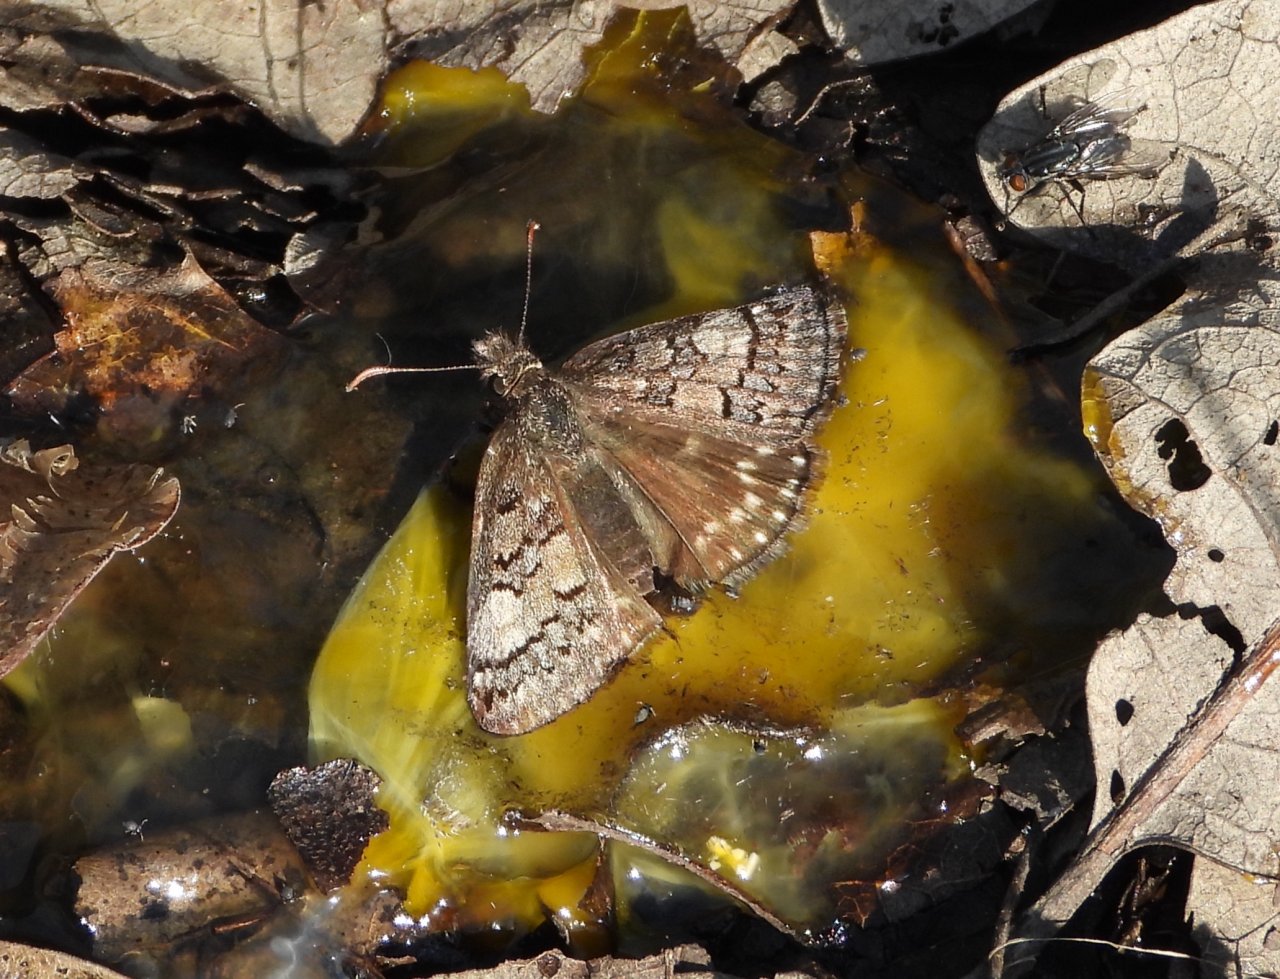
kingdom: Animalia
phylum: Arthropoda
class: Insecta
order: Lepidoptera
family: Hesperiidae
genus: Erynnis
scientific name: Erynnis brizo
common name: Sleepy Duskywing
